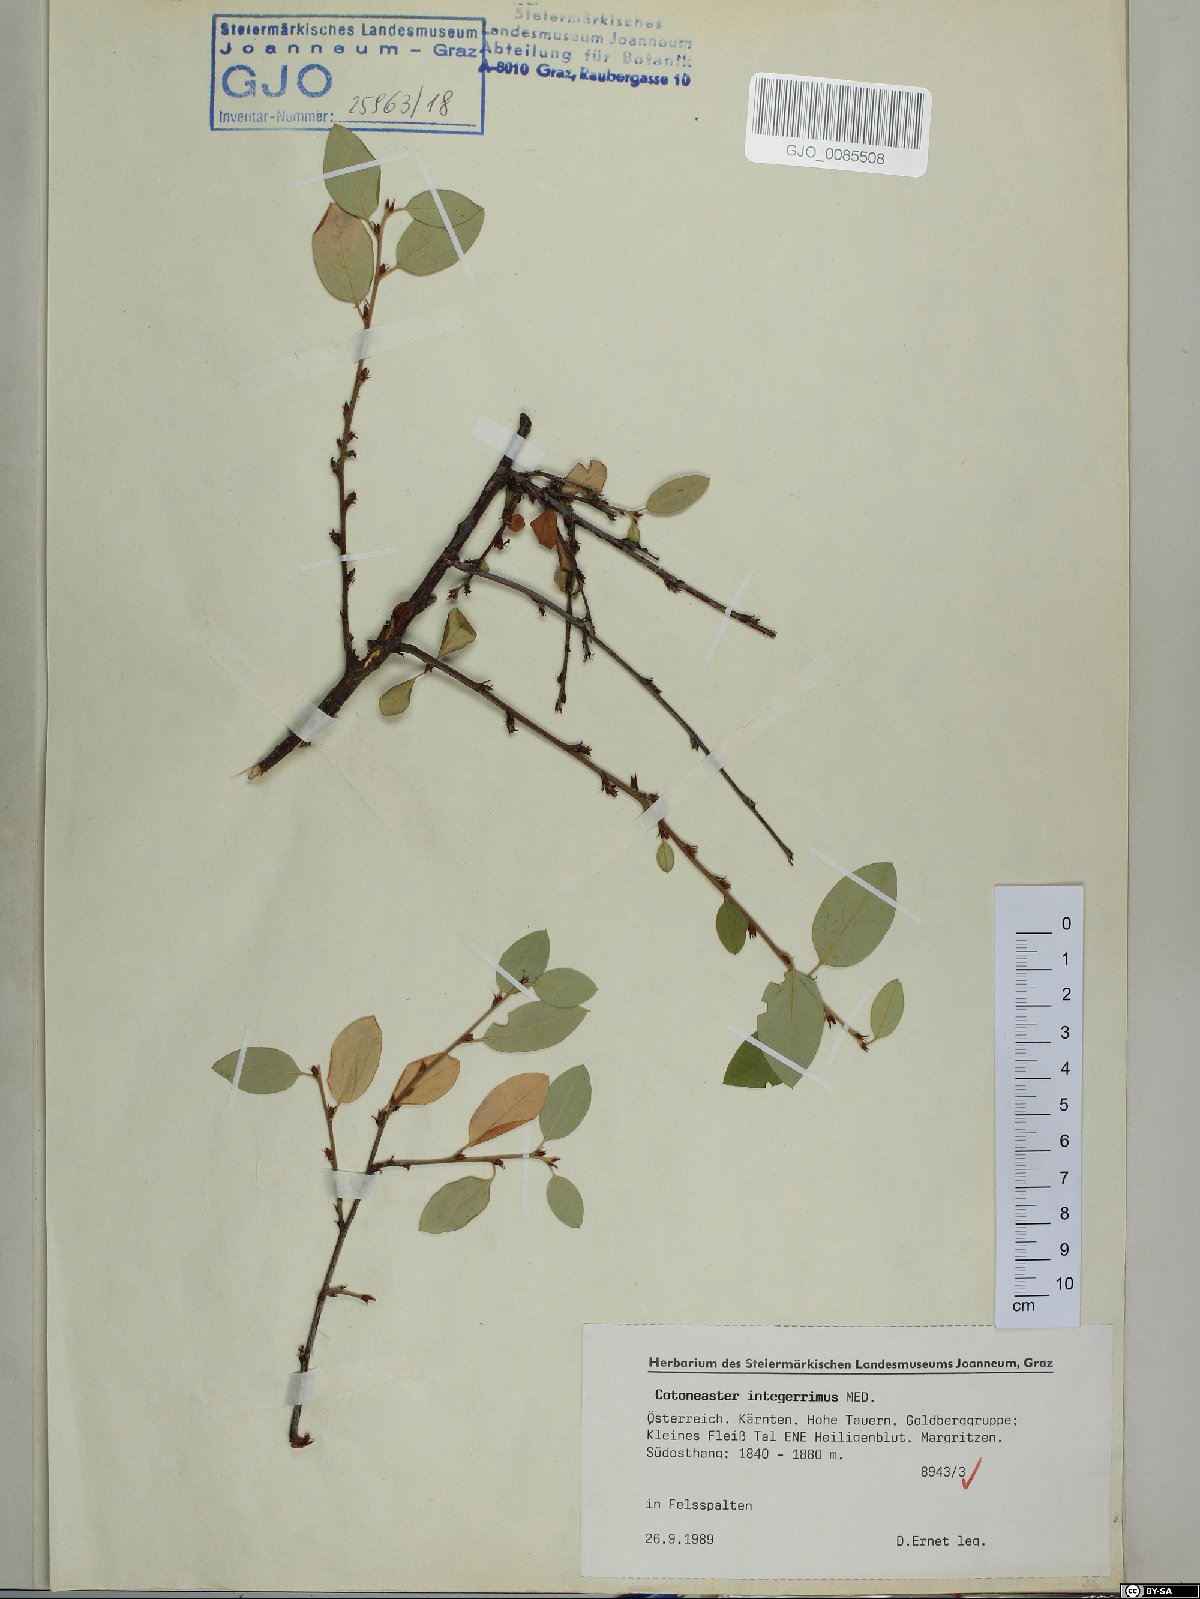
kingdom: Plantae
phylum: Tracheophyta
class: Magnoliopsida
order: Rosales
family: Rosaceae
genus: Cotoneaster
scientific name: Cotoneaster integerrimus
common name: Wild cotoneaster
